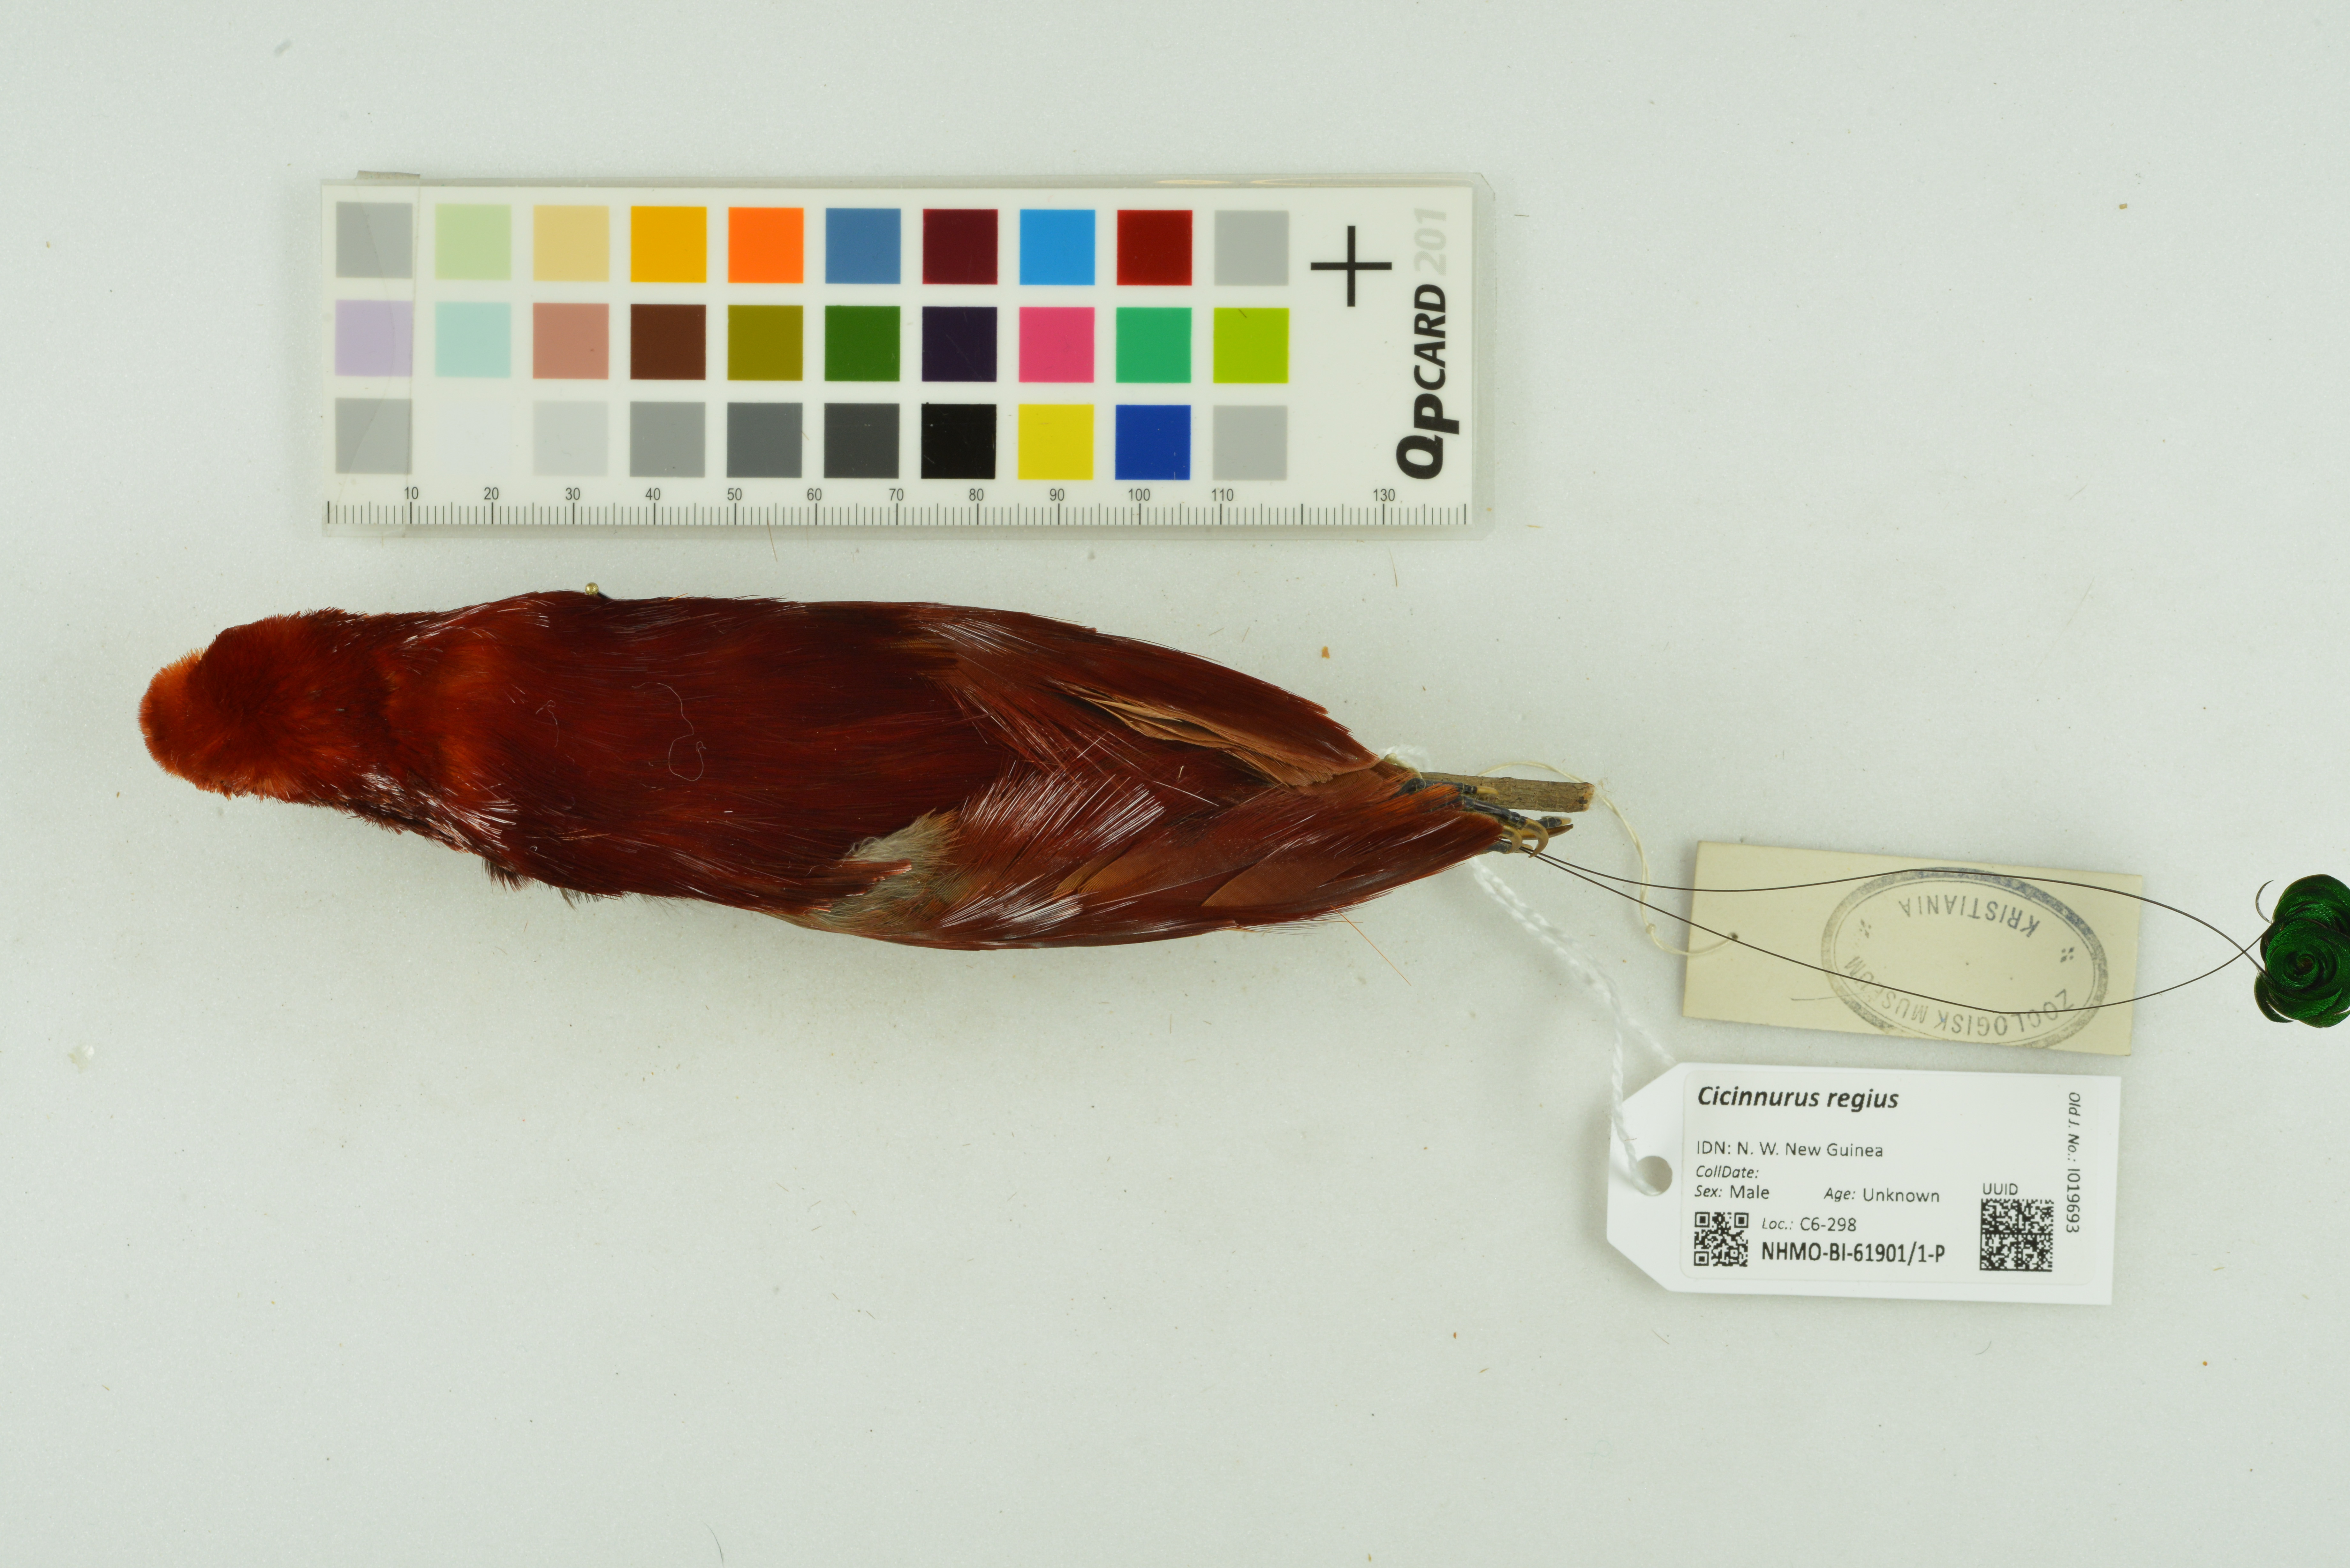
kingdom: Animalia
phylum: Chordata
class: Aves
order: Passeriformes
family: Paradisaeidae
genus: Cicinnurus
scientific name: Cicinnurus regius
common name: King bird-of-paradise
